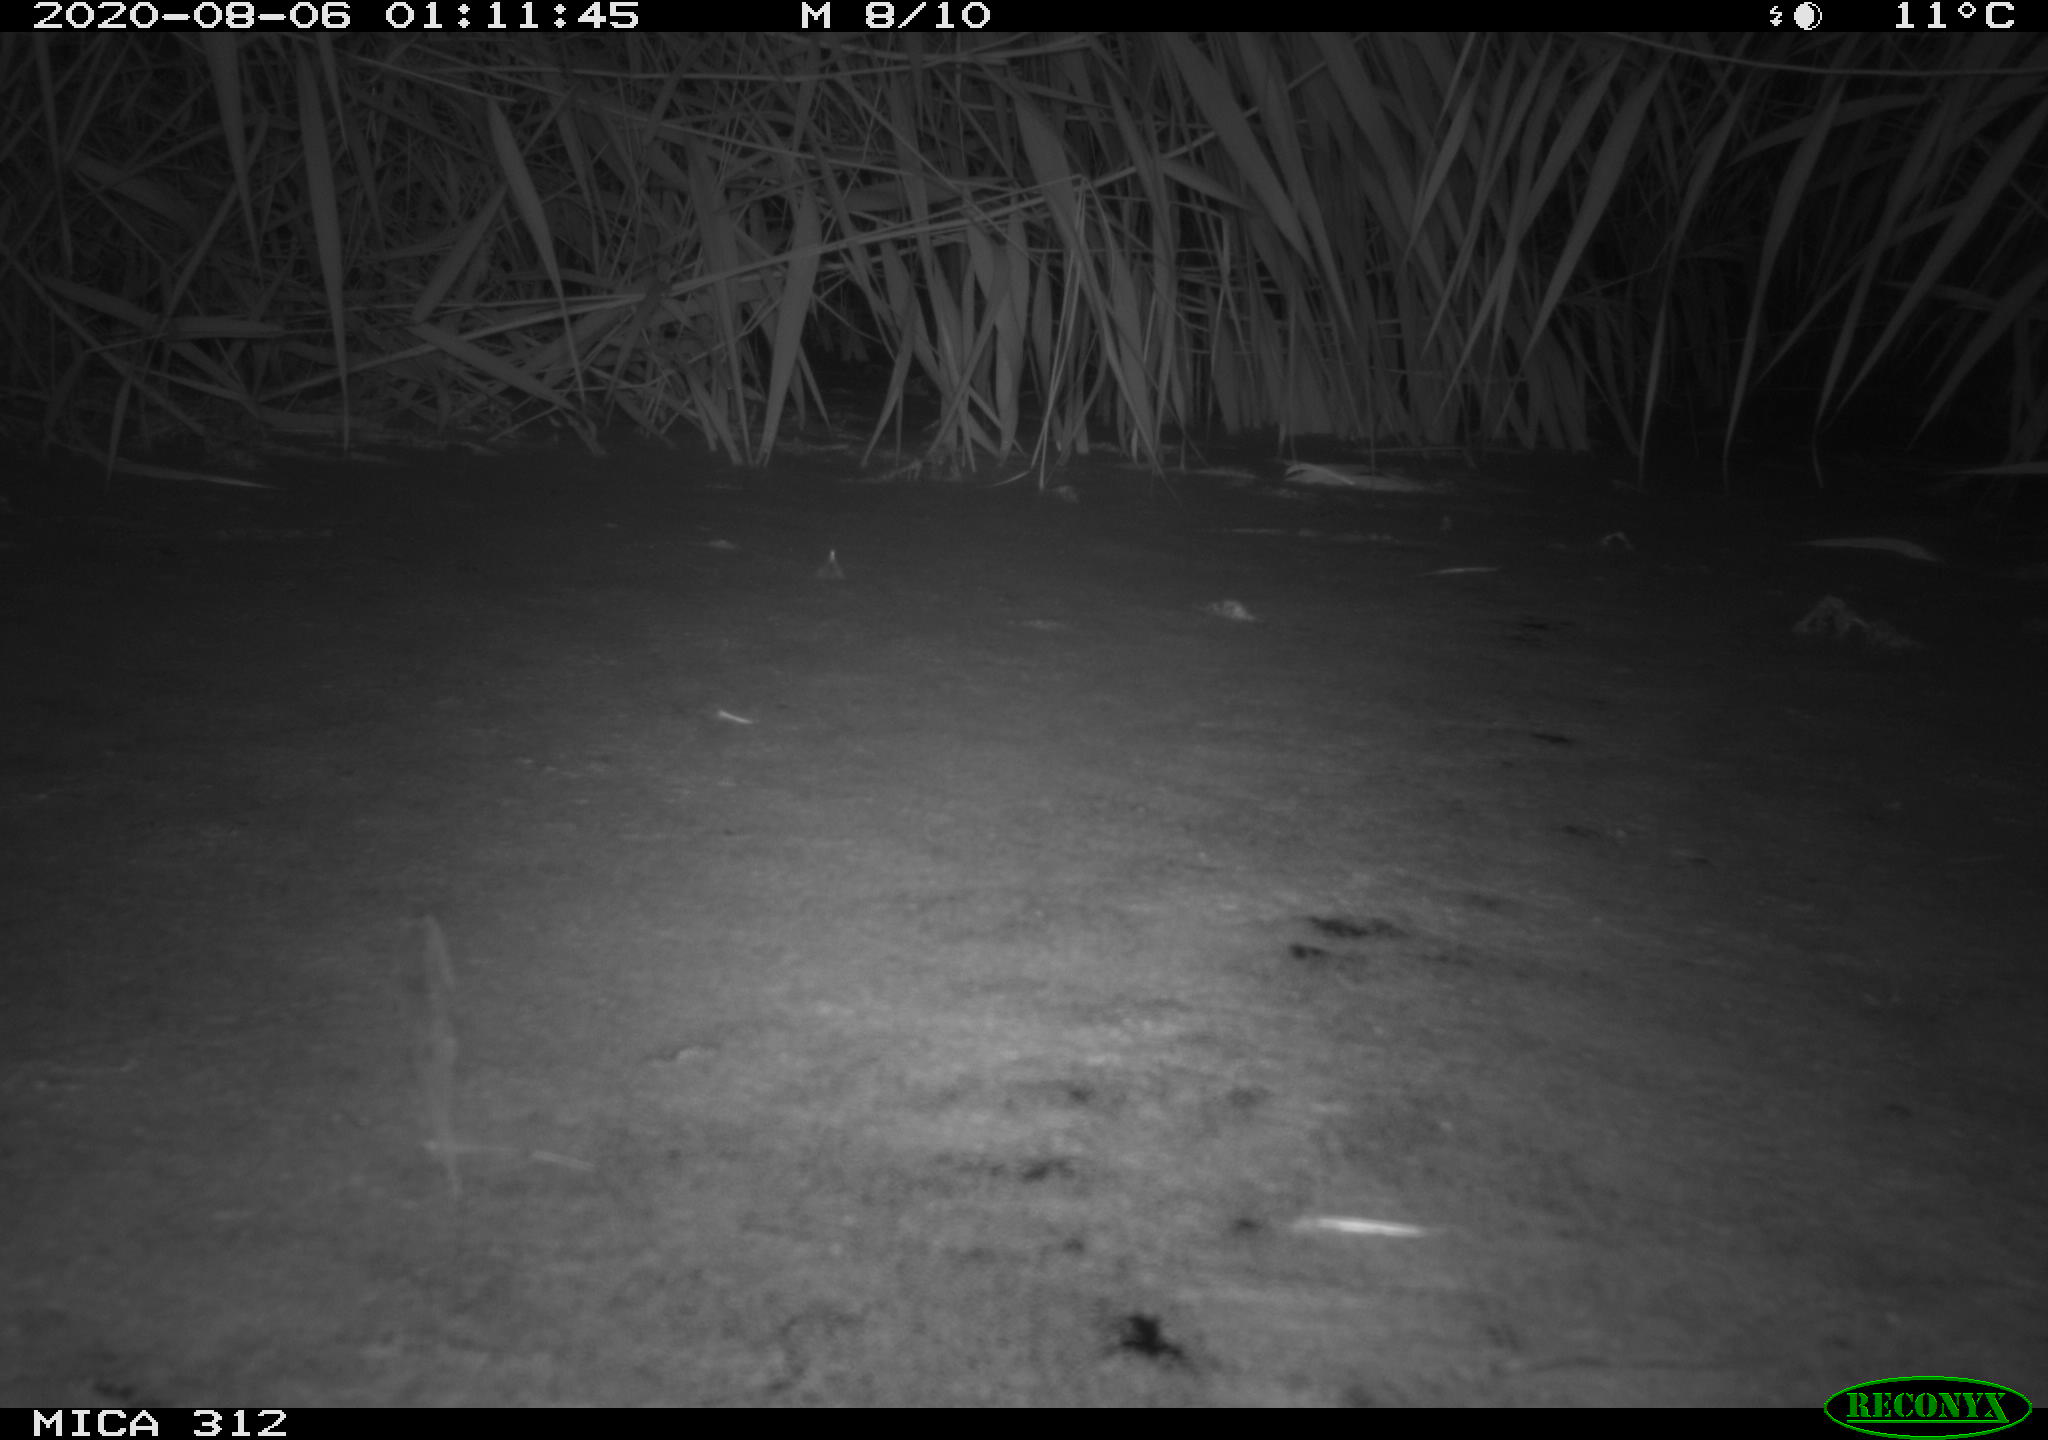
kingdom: Animalia
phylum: Chordata
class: Mammalia
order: Rodentia
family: Muridae
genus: Rattus
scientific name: Rattus norvegicus
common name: Brown rat
